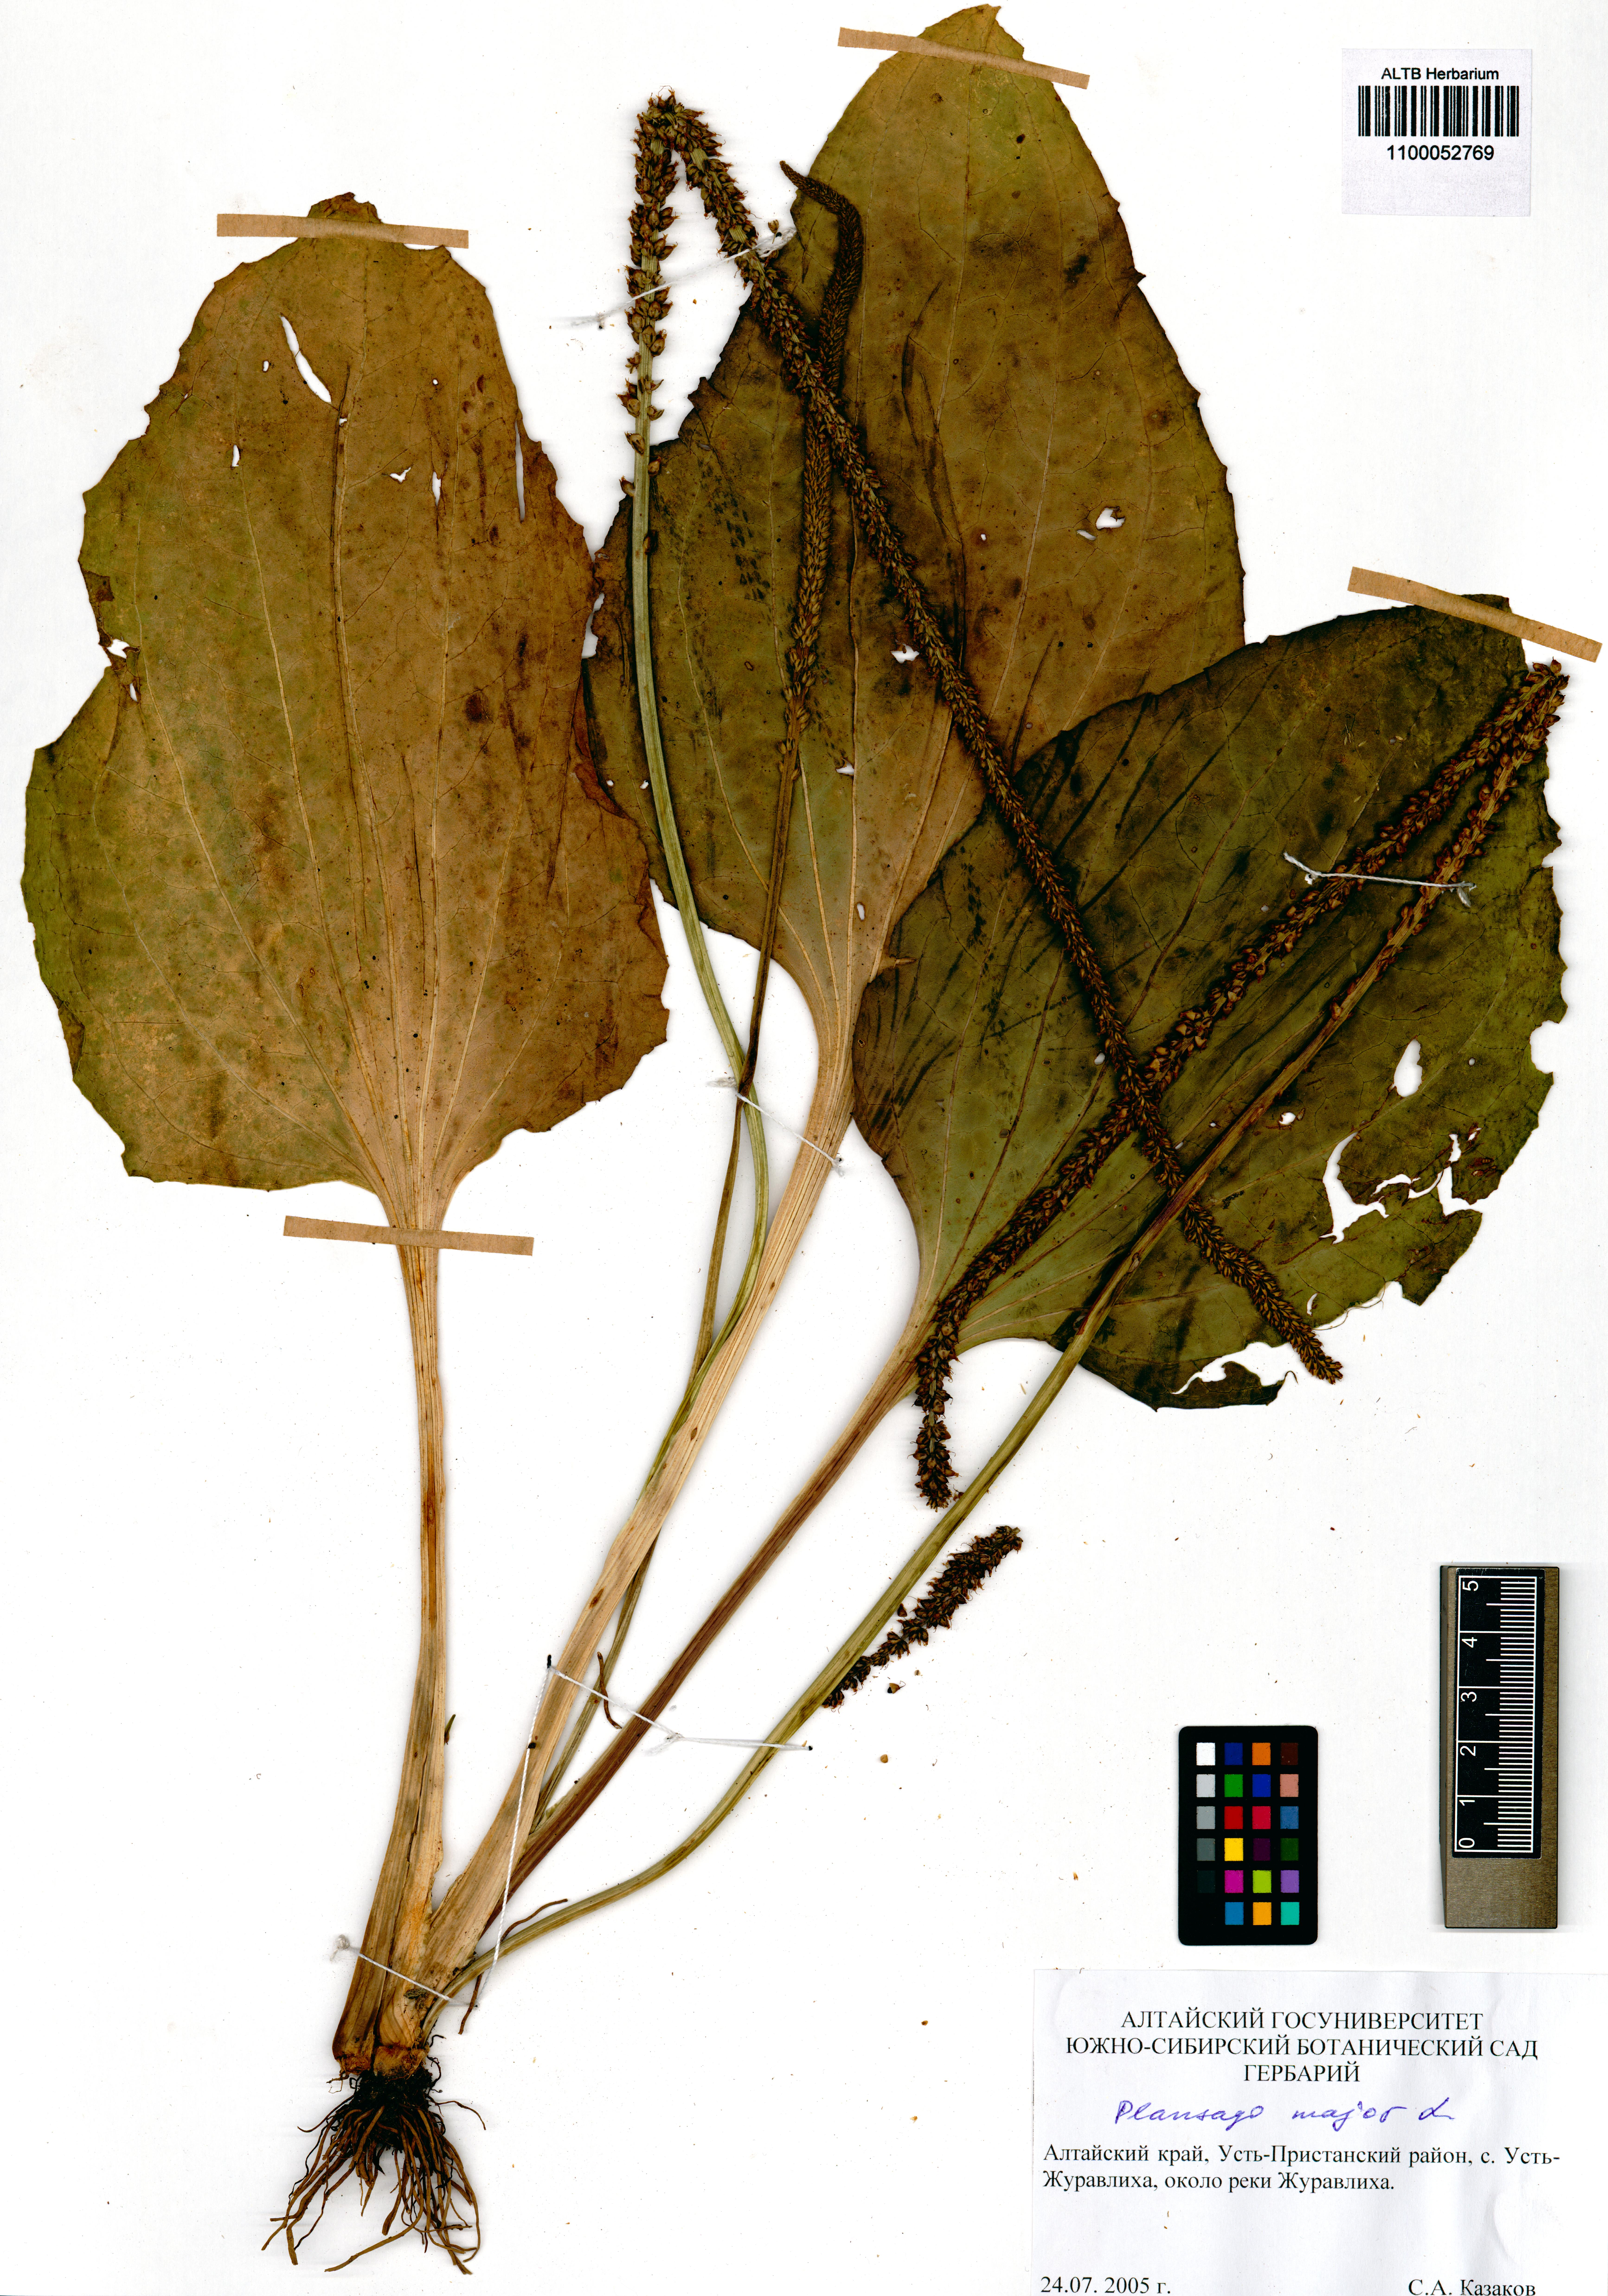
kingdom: Plantae
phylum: Tracheophyta
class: Magnoliopsida
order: Lamiales
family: Plantaginaceae
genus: Plantago
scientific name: Plantago major
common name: Common plantain
